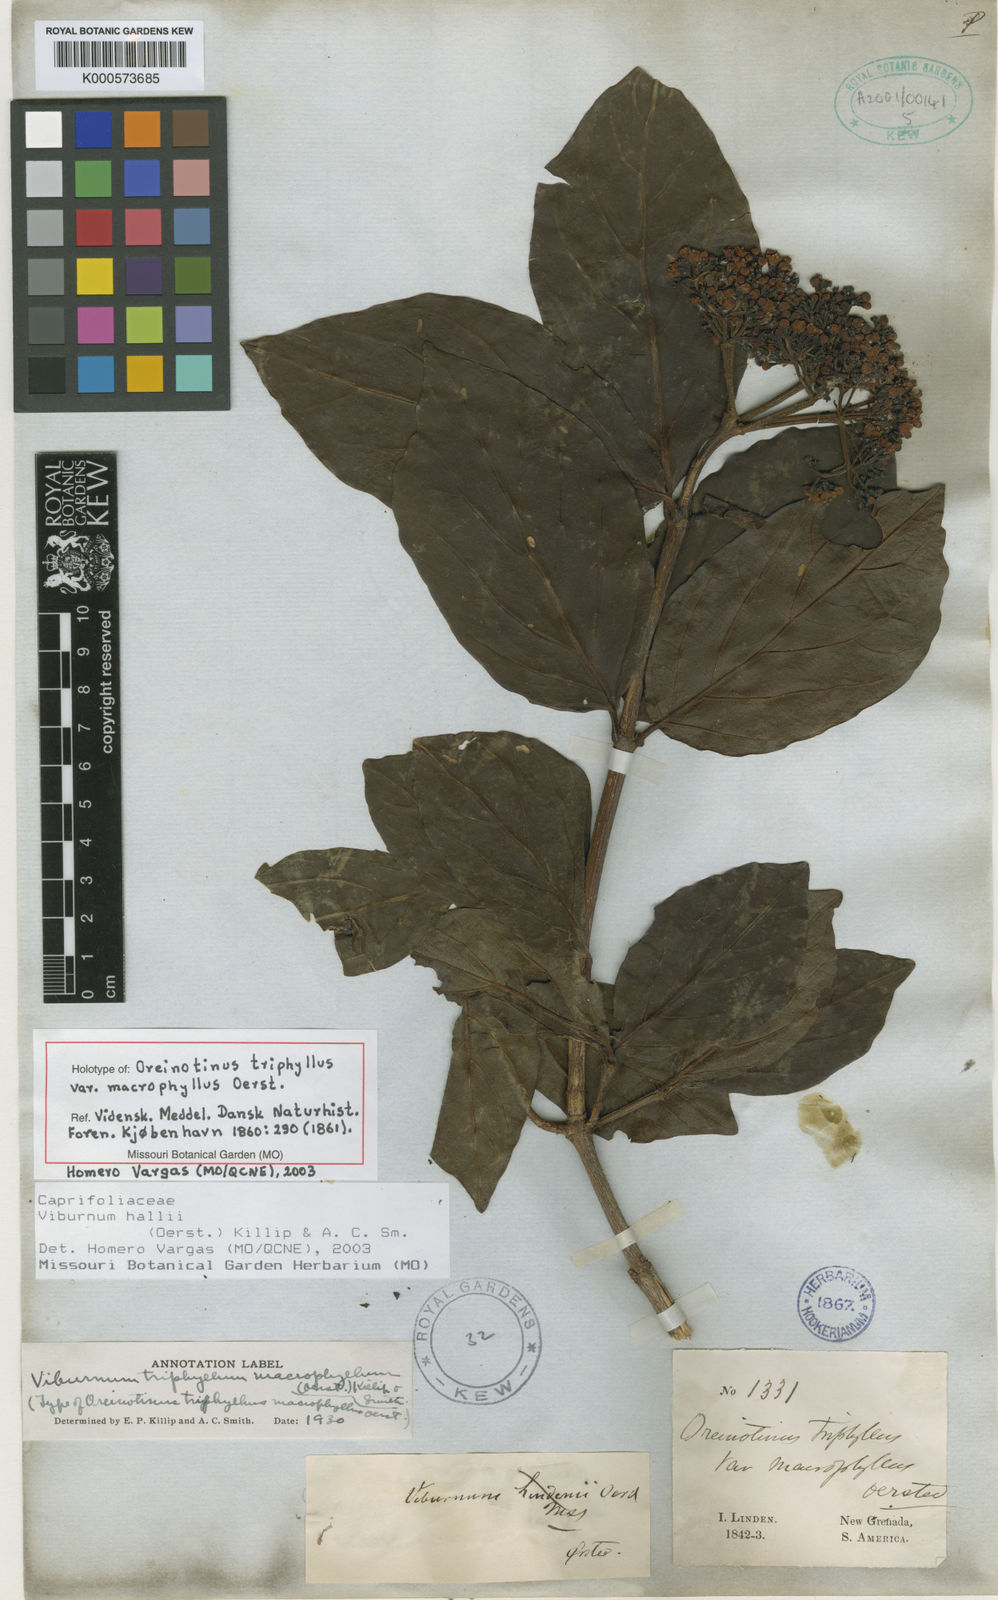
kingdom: Plantae
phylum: Tracheophyta
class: Magnoliopsida
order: Dipsacales
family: Viburnaceae
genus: Viburnum
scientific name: Viburnum triphyllum
